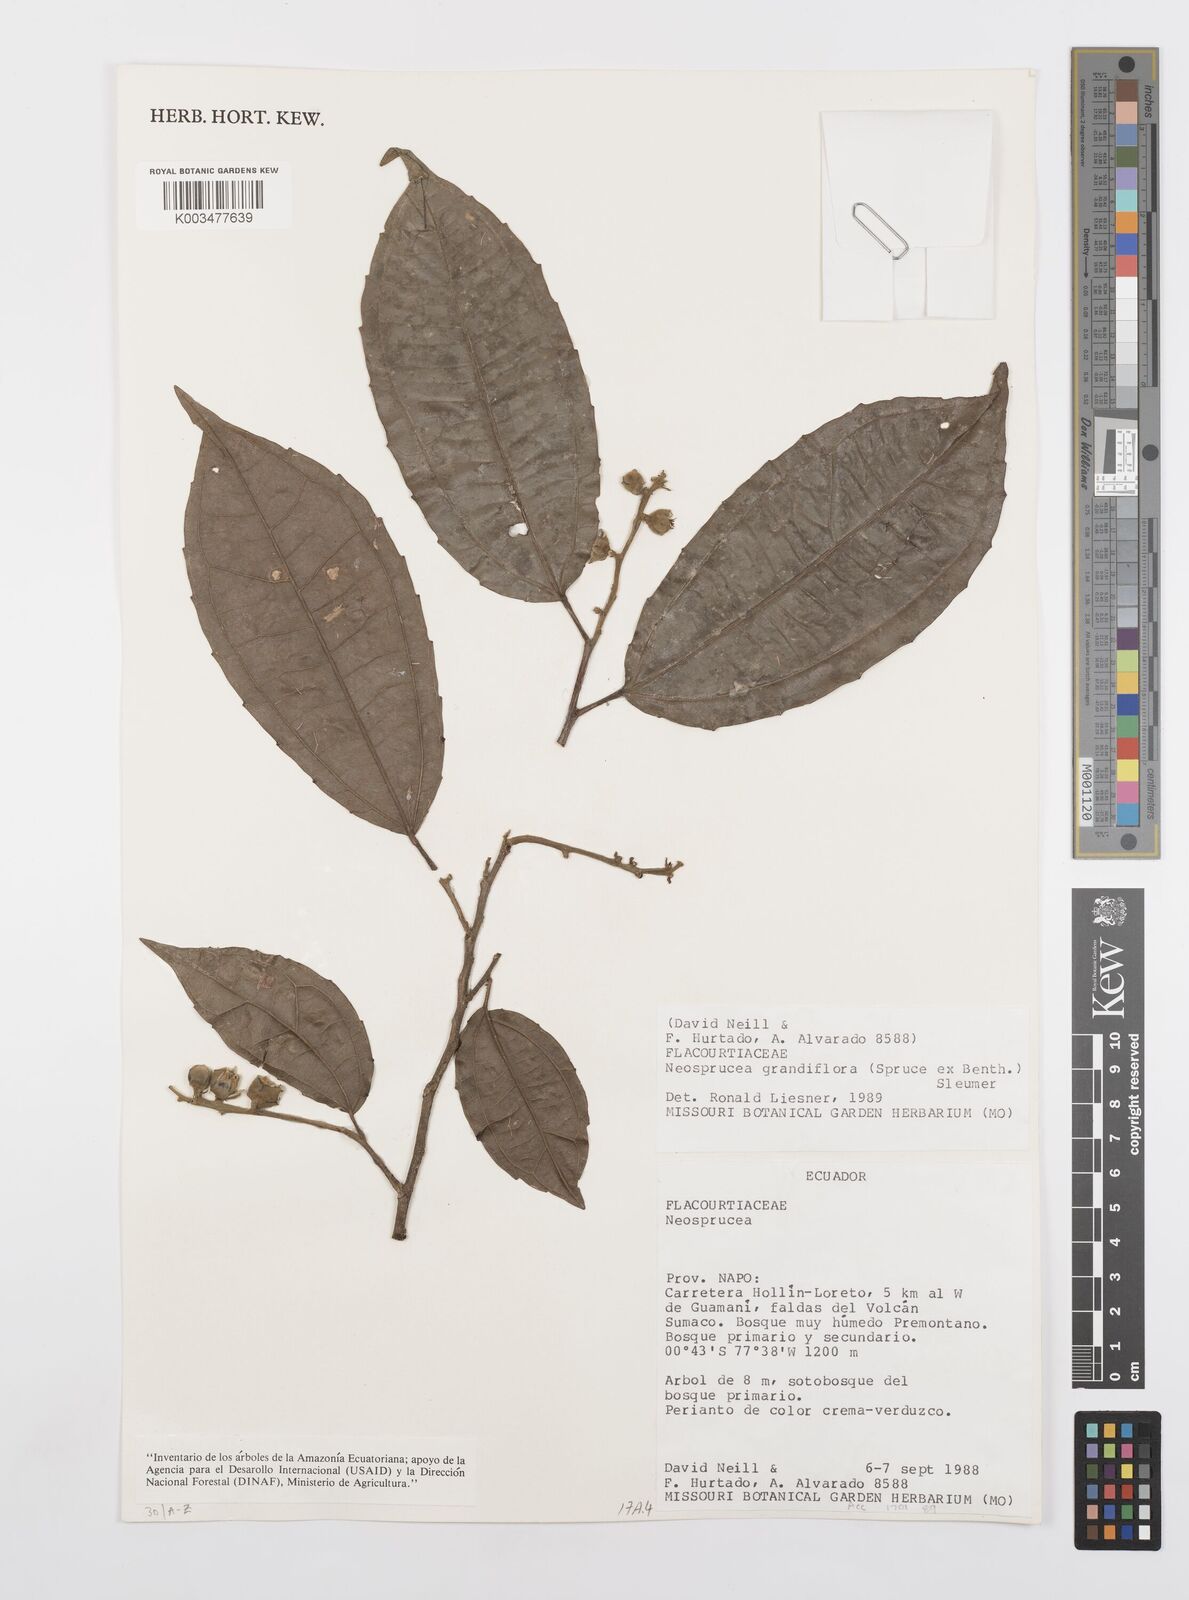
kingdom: Plantae
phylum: Tracheophyta
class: Magnoliopsida
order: Malpighiales
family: Salicaceae
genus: Neosprucea
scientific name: Neosprucea grandiflora
